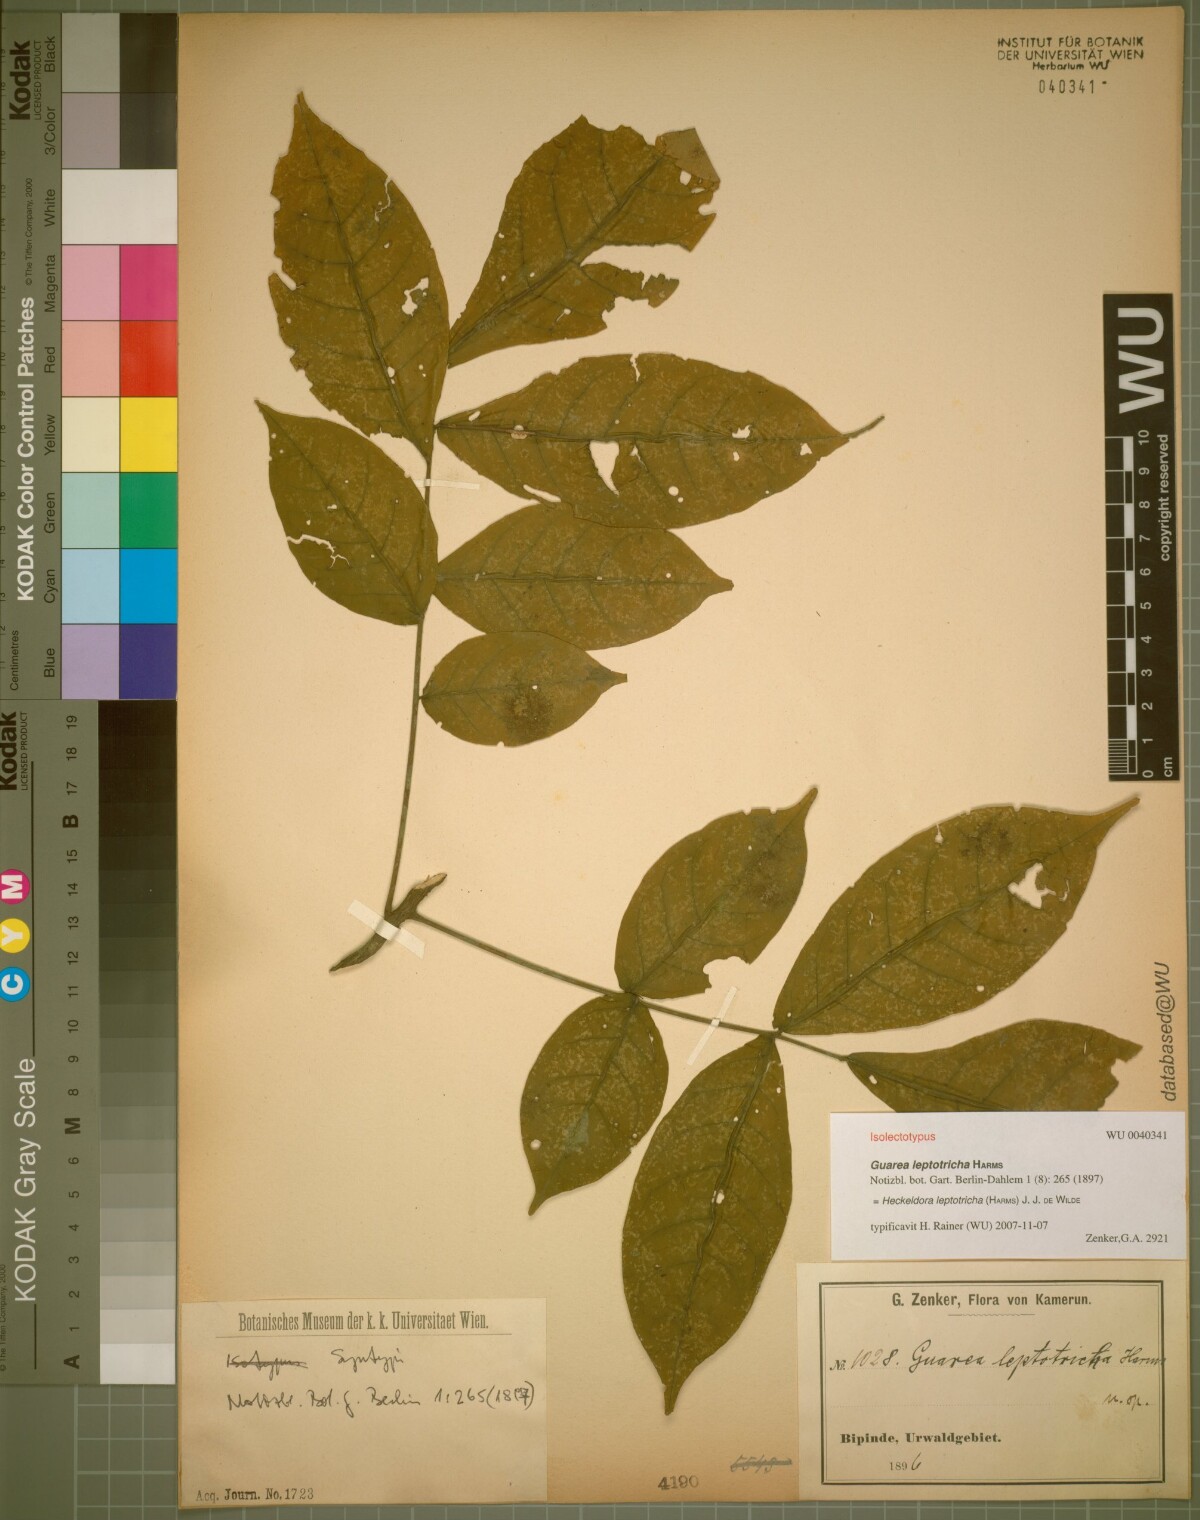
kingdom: Plantae
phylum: Tracheophyta
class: Magnoliopsida
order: Sapindales
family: Meliaceae
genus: Heckeldora
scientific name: Heckeldora leptotricha
